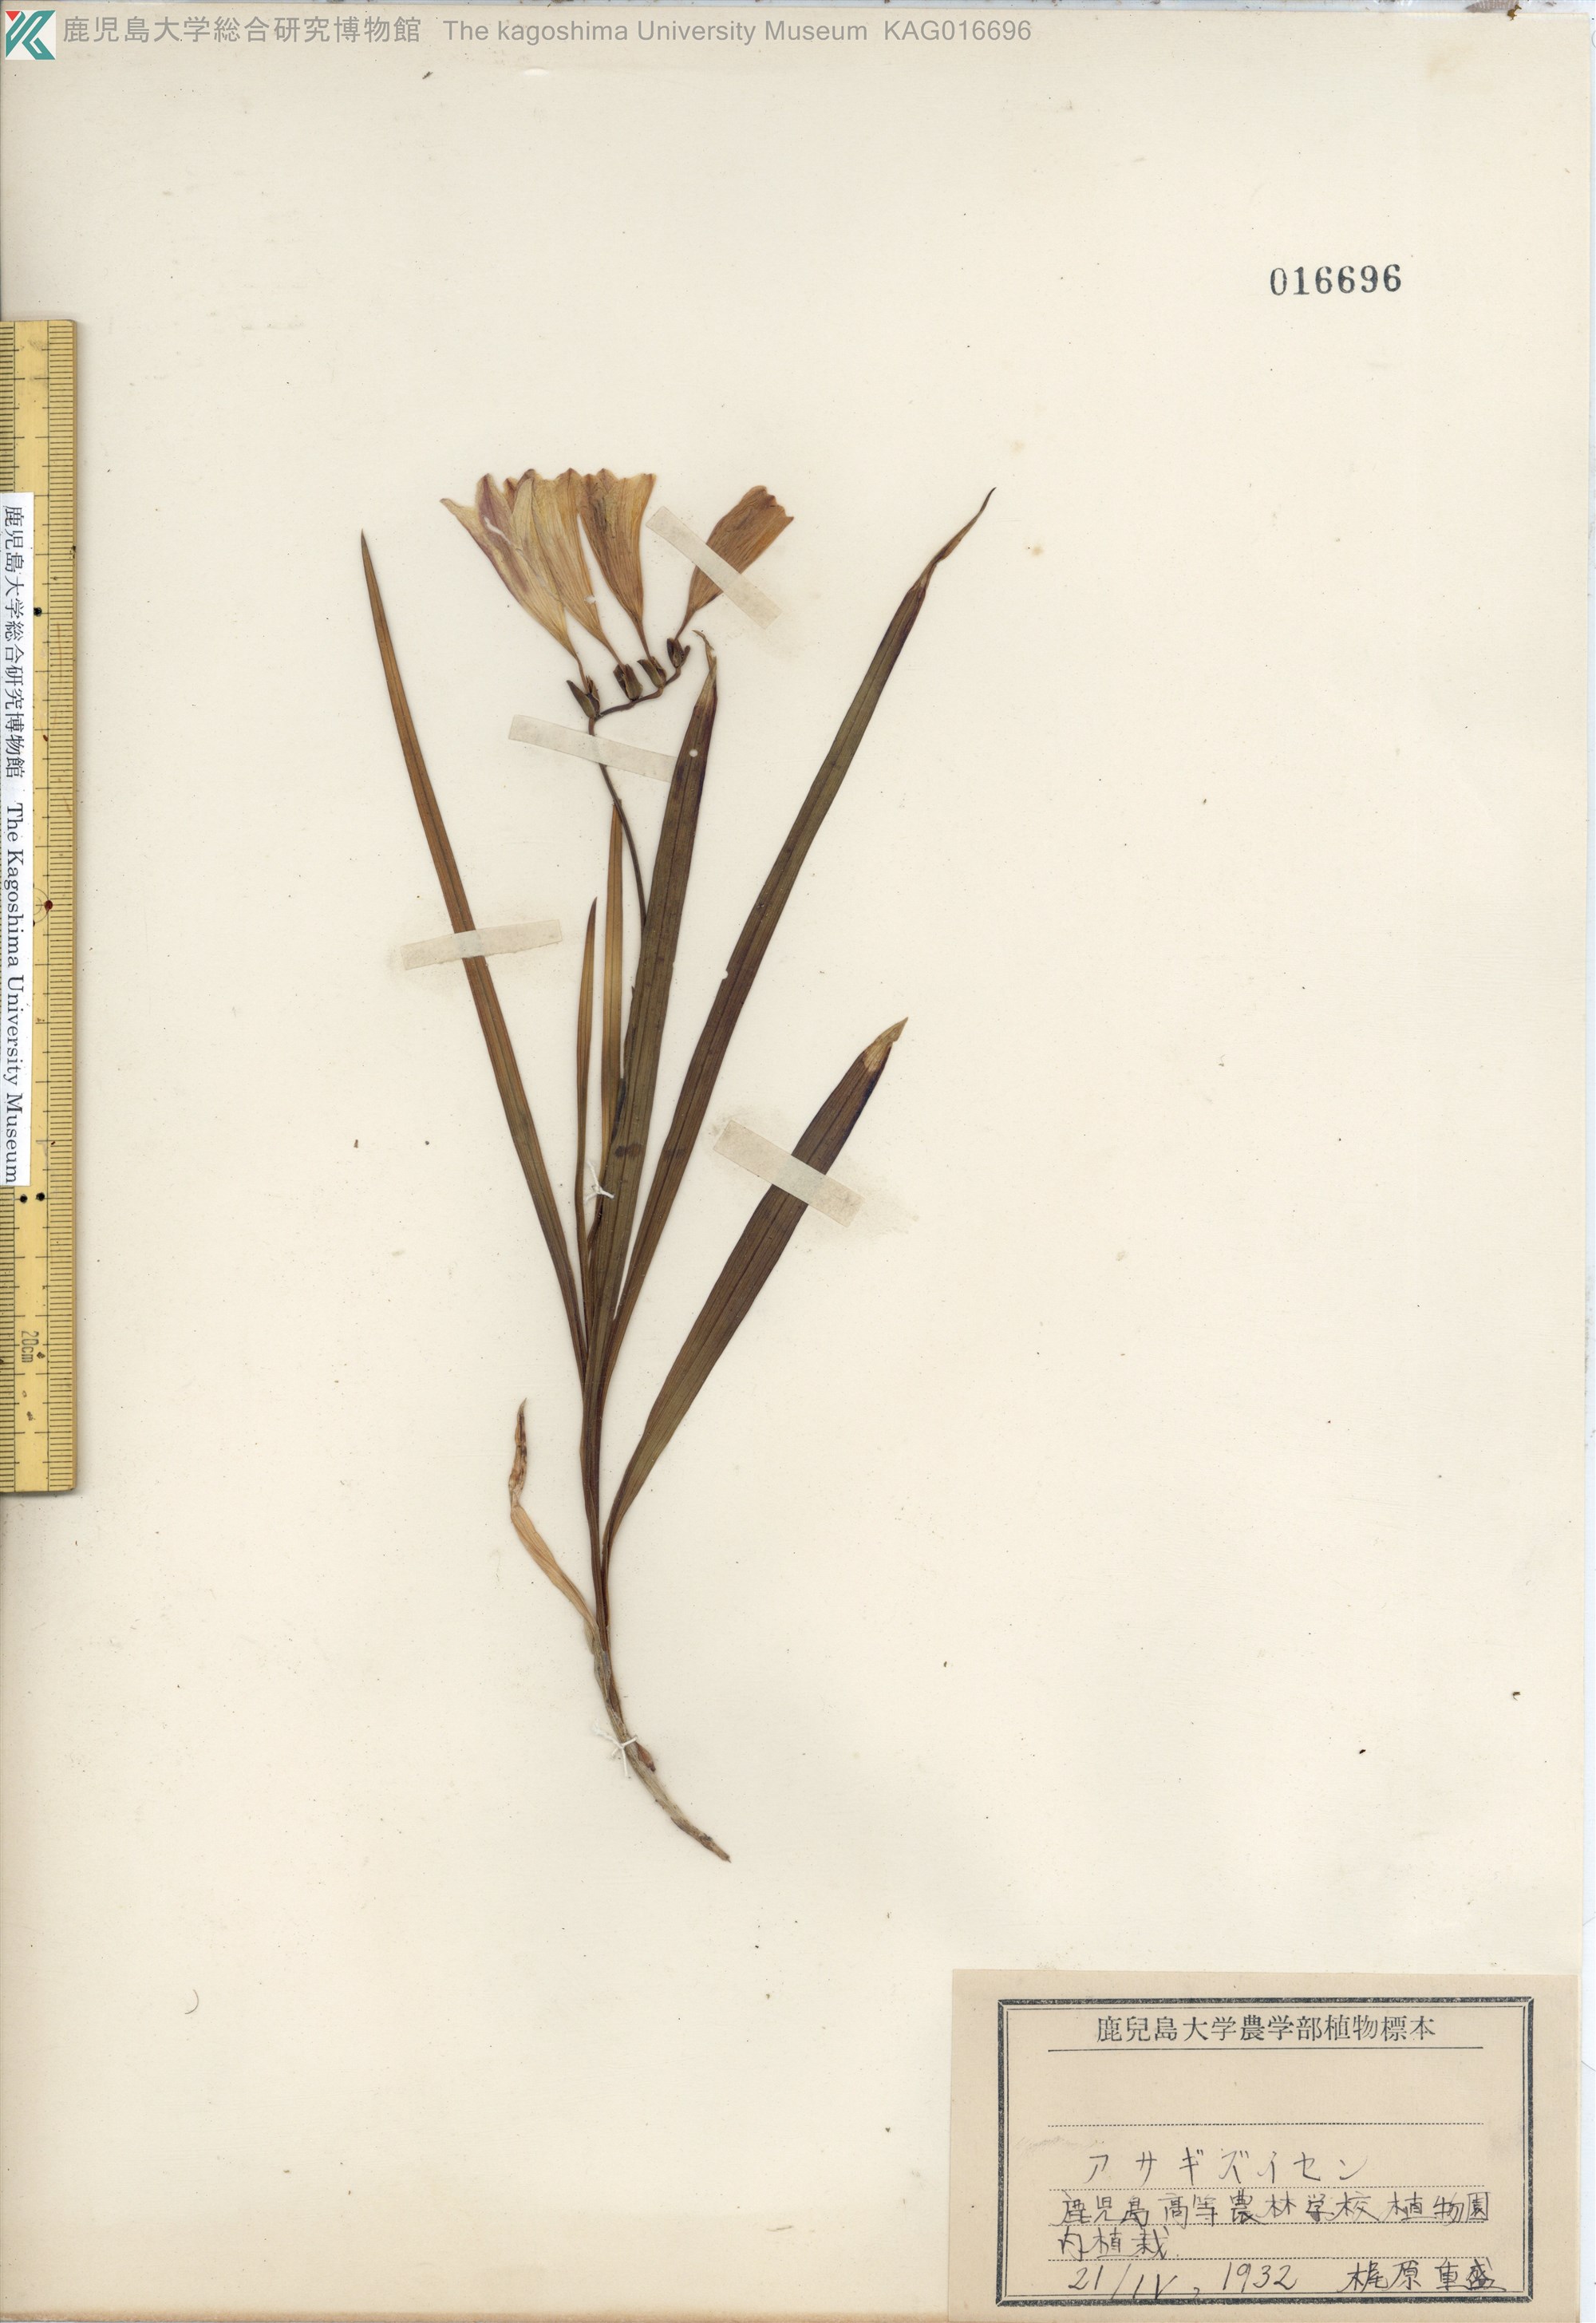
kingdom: Plantae
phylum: Tracheophyta
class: Liliopsida
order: Asparagales
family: Iridaceae
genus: Freesia
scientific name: Freesia refracta
